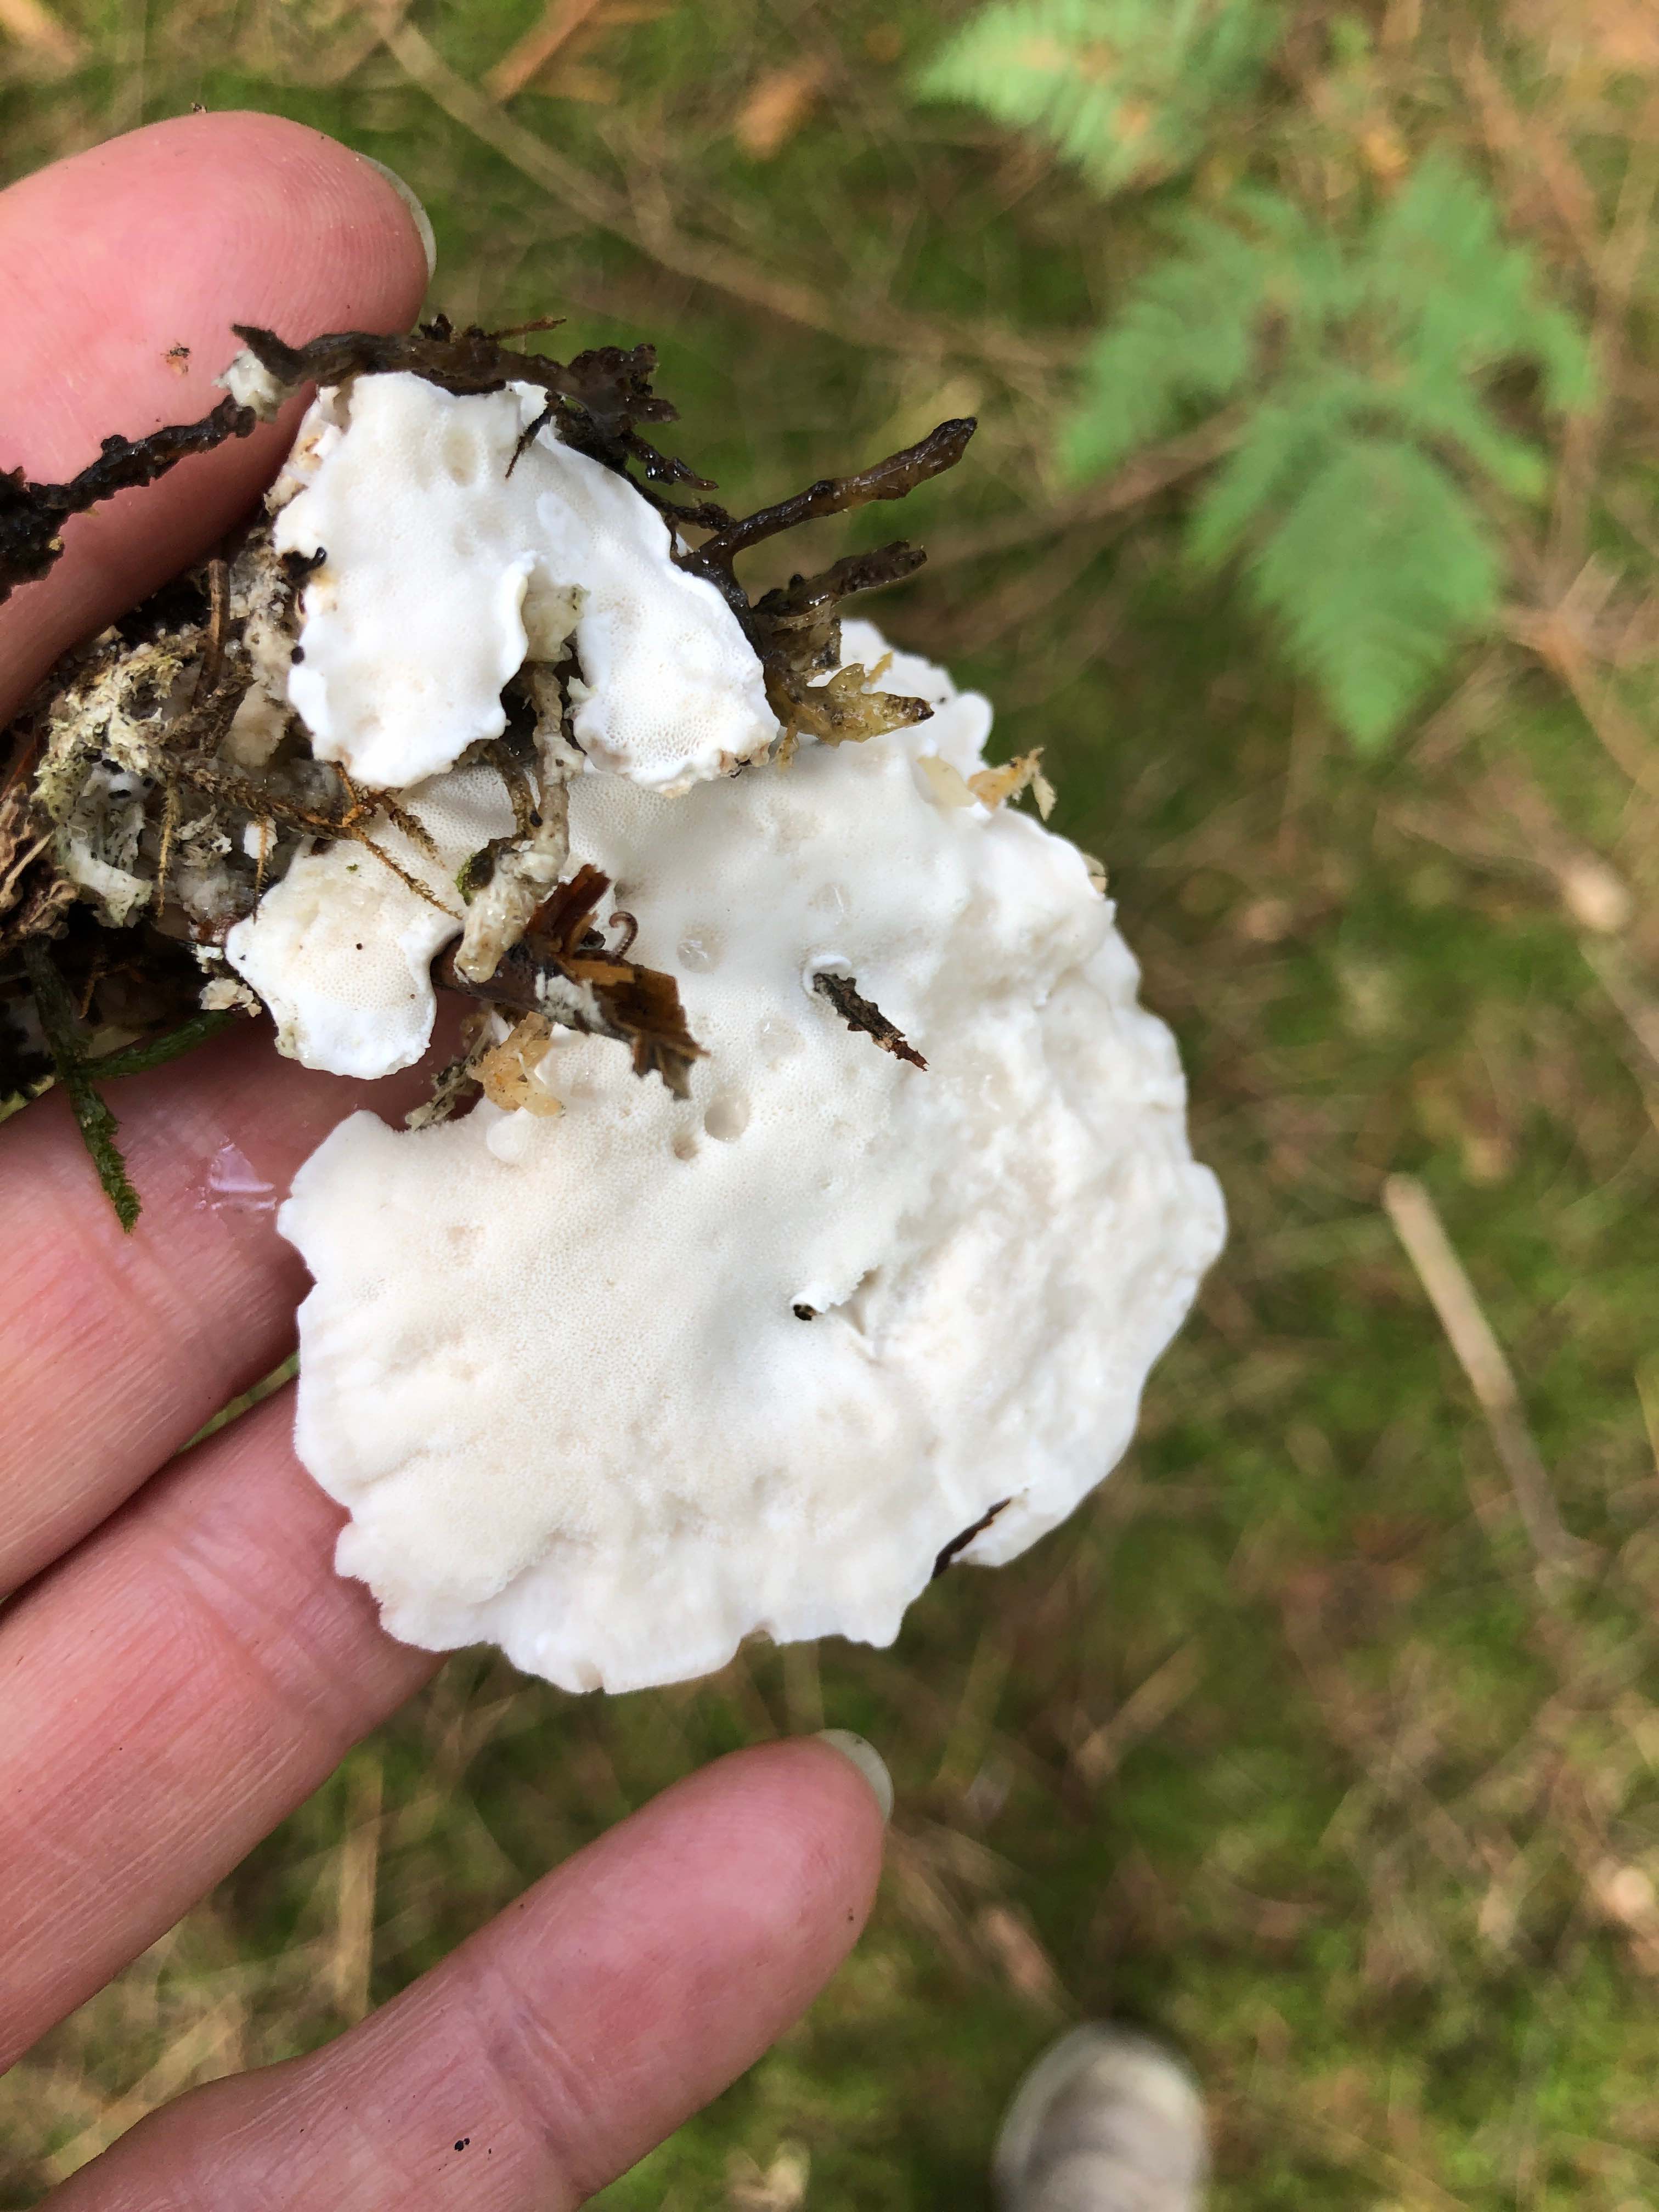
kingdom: Fungi
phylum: Basidiomycota
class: Agaricomycetes
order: Polyporales
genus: Calcipostia
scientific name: Calcipostia guttulata
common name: dråbe-kødporesvamp
